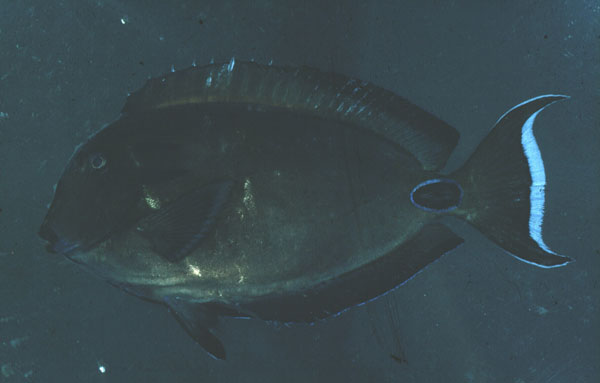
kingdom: Animalia
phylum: Chordata
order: Perciformes
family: Acanthuridae
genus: Acanthurus
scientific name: Acanthurus tennentii
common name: Doubleband surgeonfish
